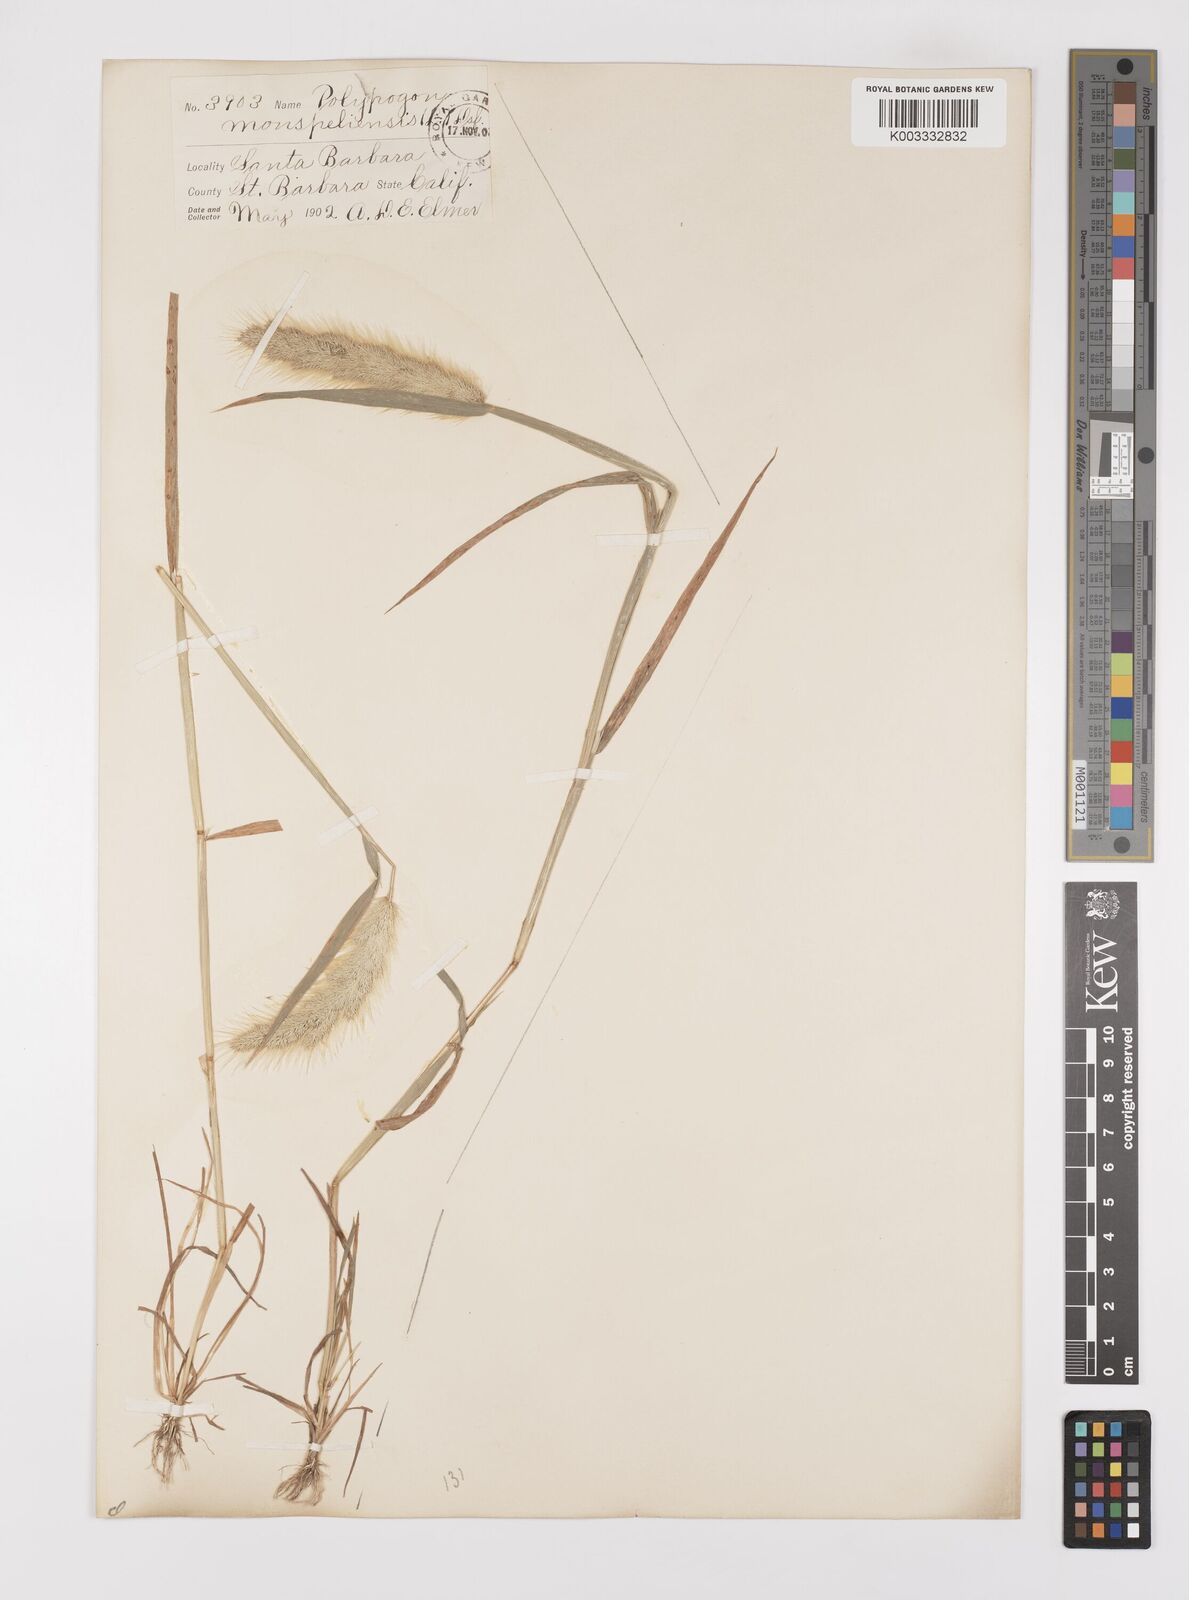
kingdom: Plantae
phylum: Tracheophyta
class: Liliopsida
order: Poales
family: Poaceae
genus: Polypogon
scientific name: Polypogon monspeliensis
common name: Annual rabbitsfoot grass
